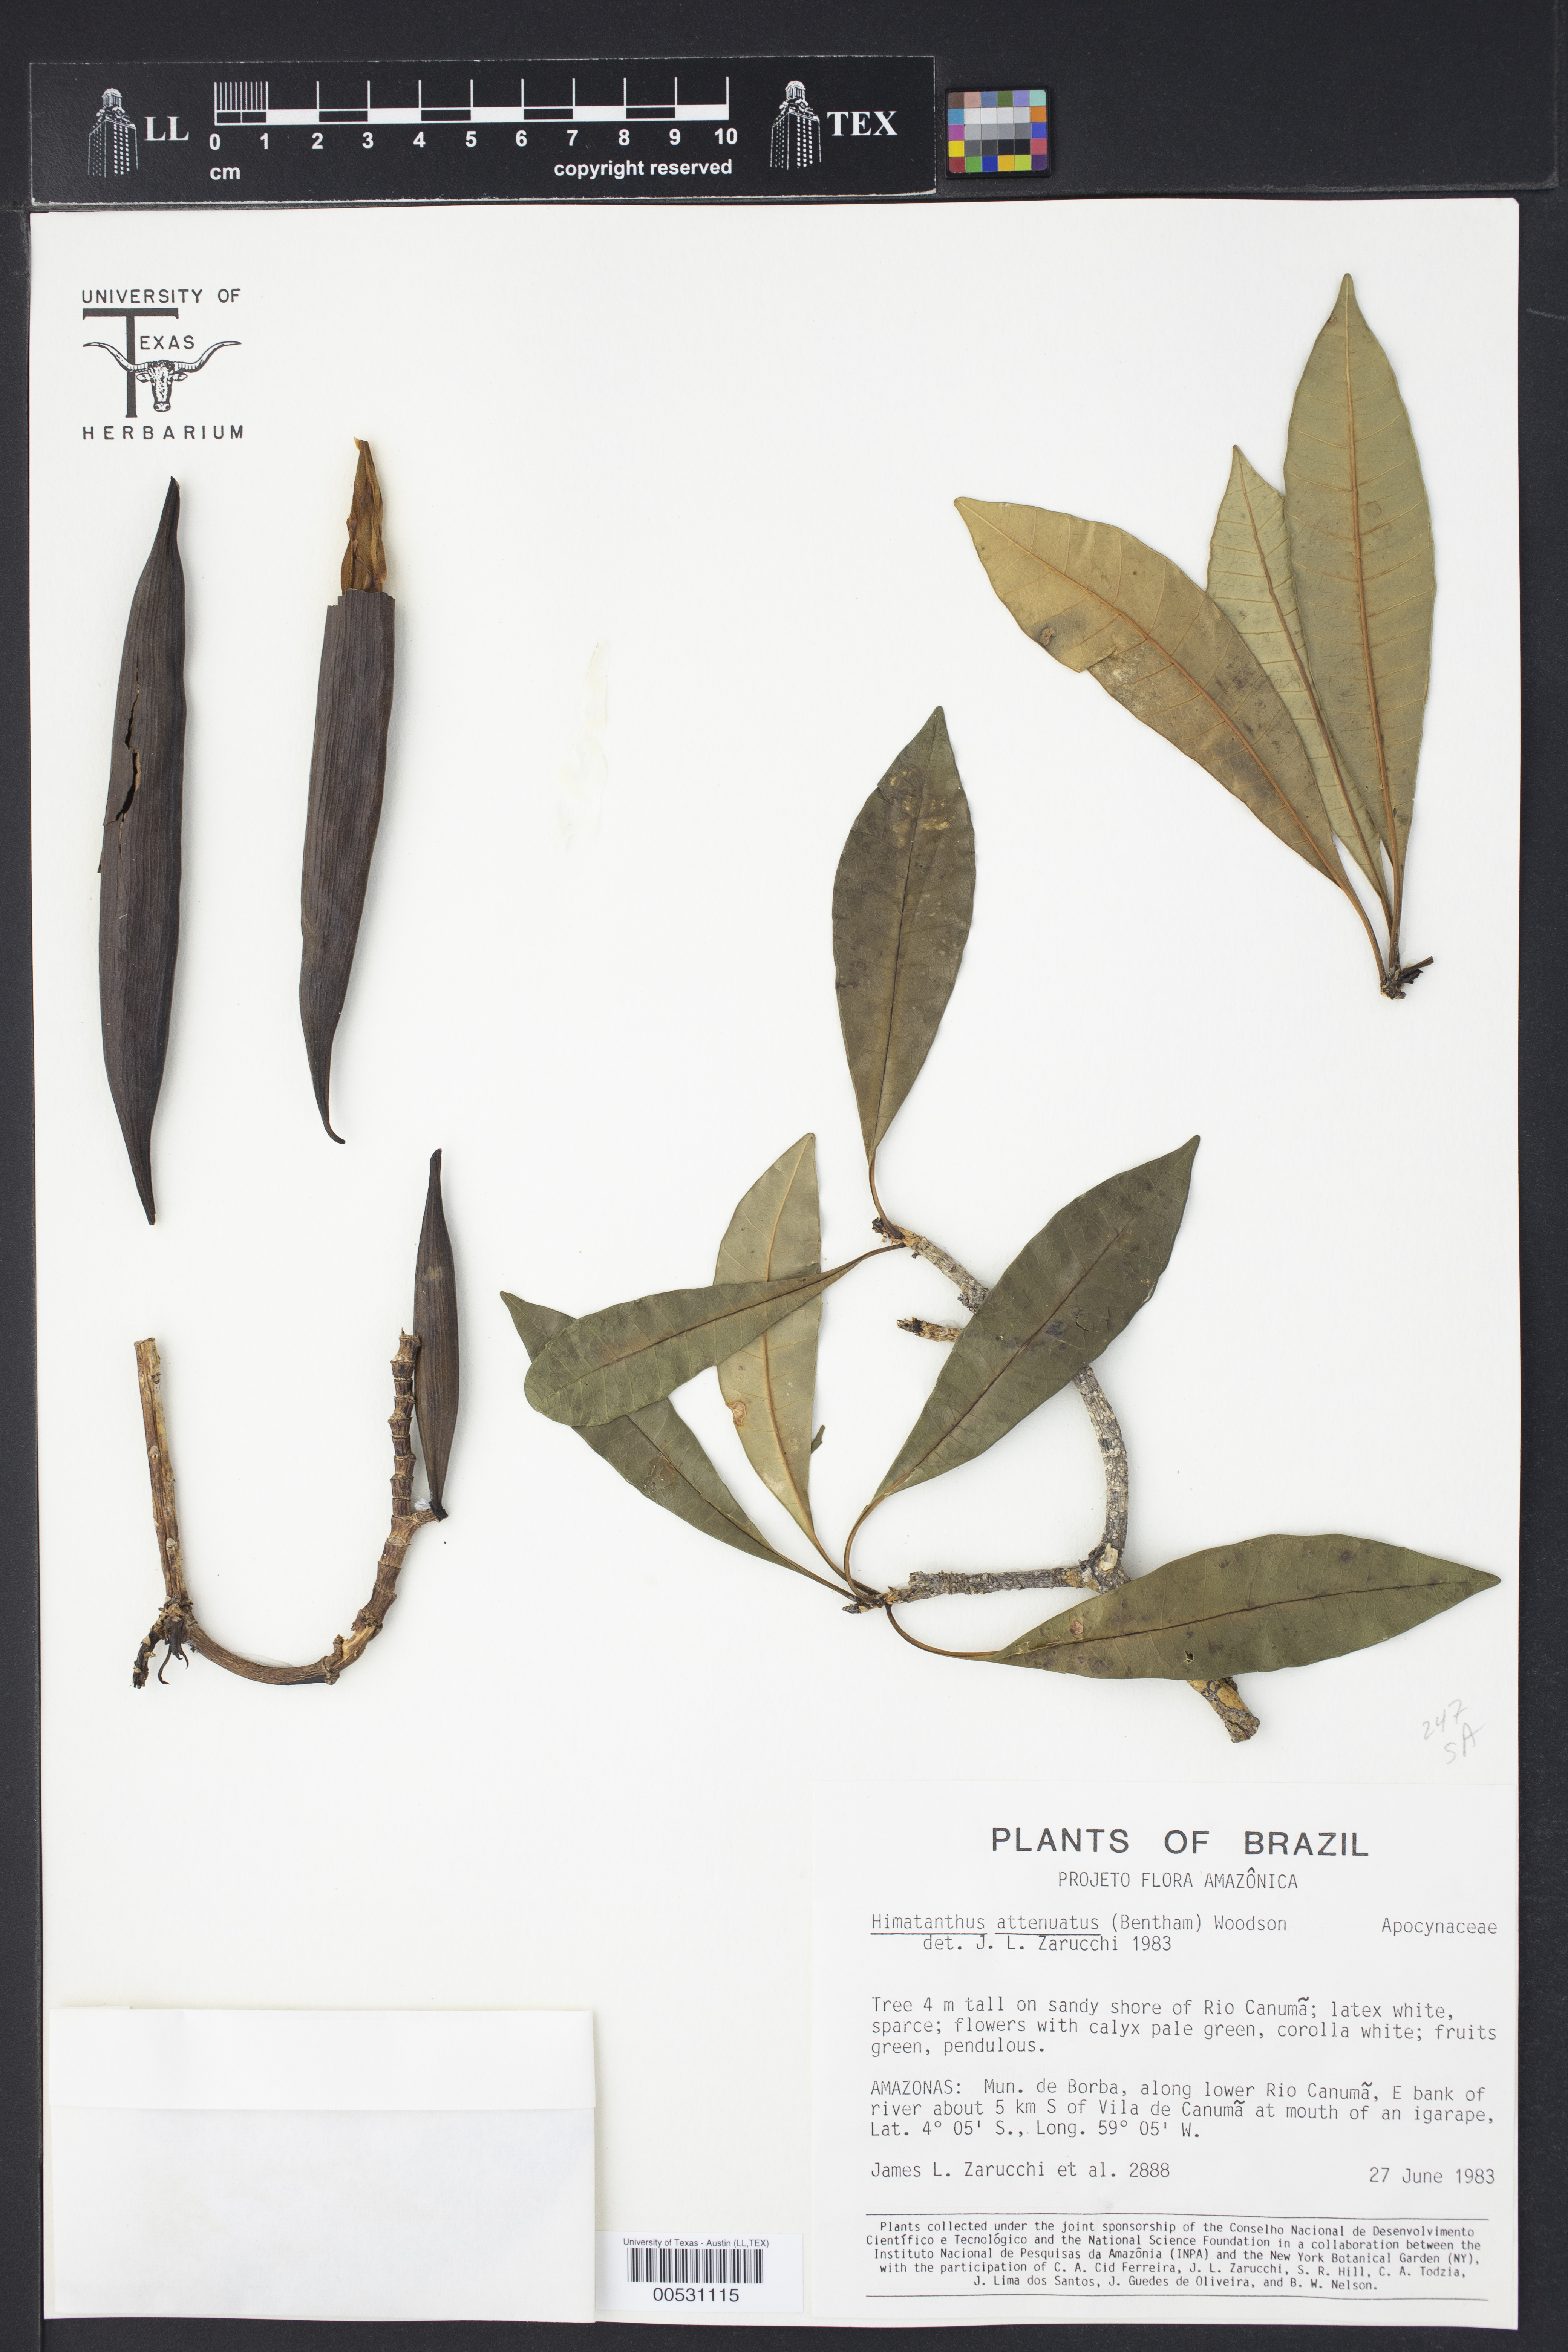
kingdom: Plantae
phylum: Tracheophyta
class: Magnoliopsida
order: Gentianales
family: Apocynaceae
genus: Himatanthus
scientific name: Himatanthus attenuatus
